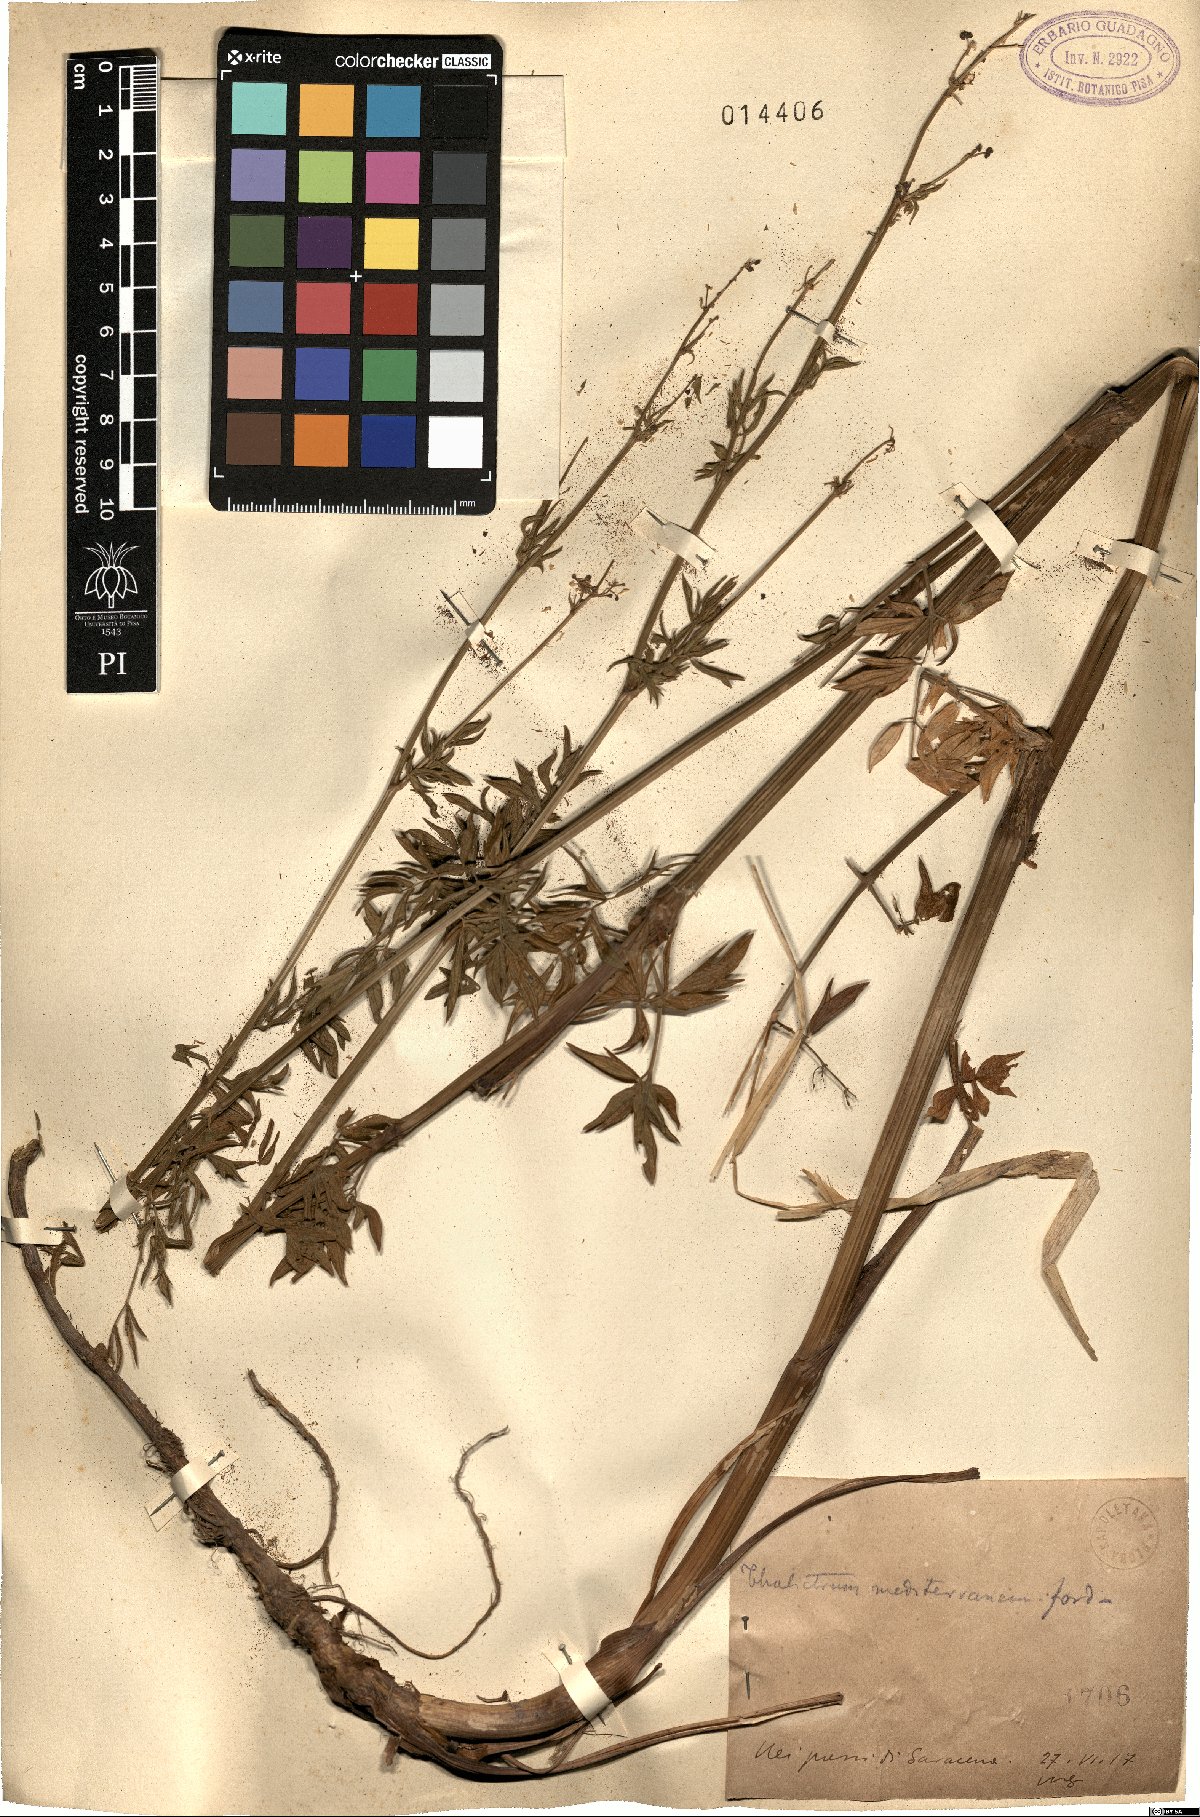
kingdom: Plantae
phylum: Tracheophyta
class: Magnoliopsida
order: Ranunculales
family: Ranunculaceae
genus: Thalictrum
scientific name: Thalictrum flavum
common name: Common meadow-rue
